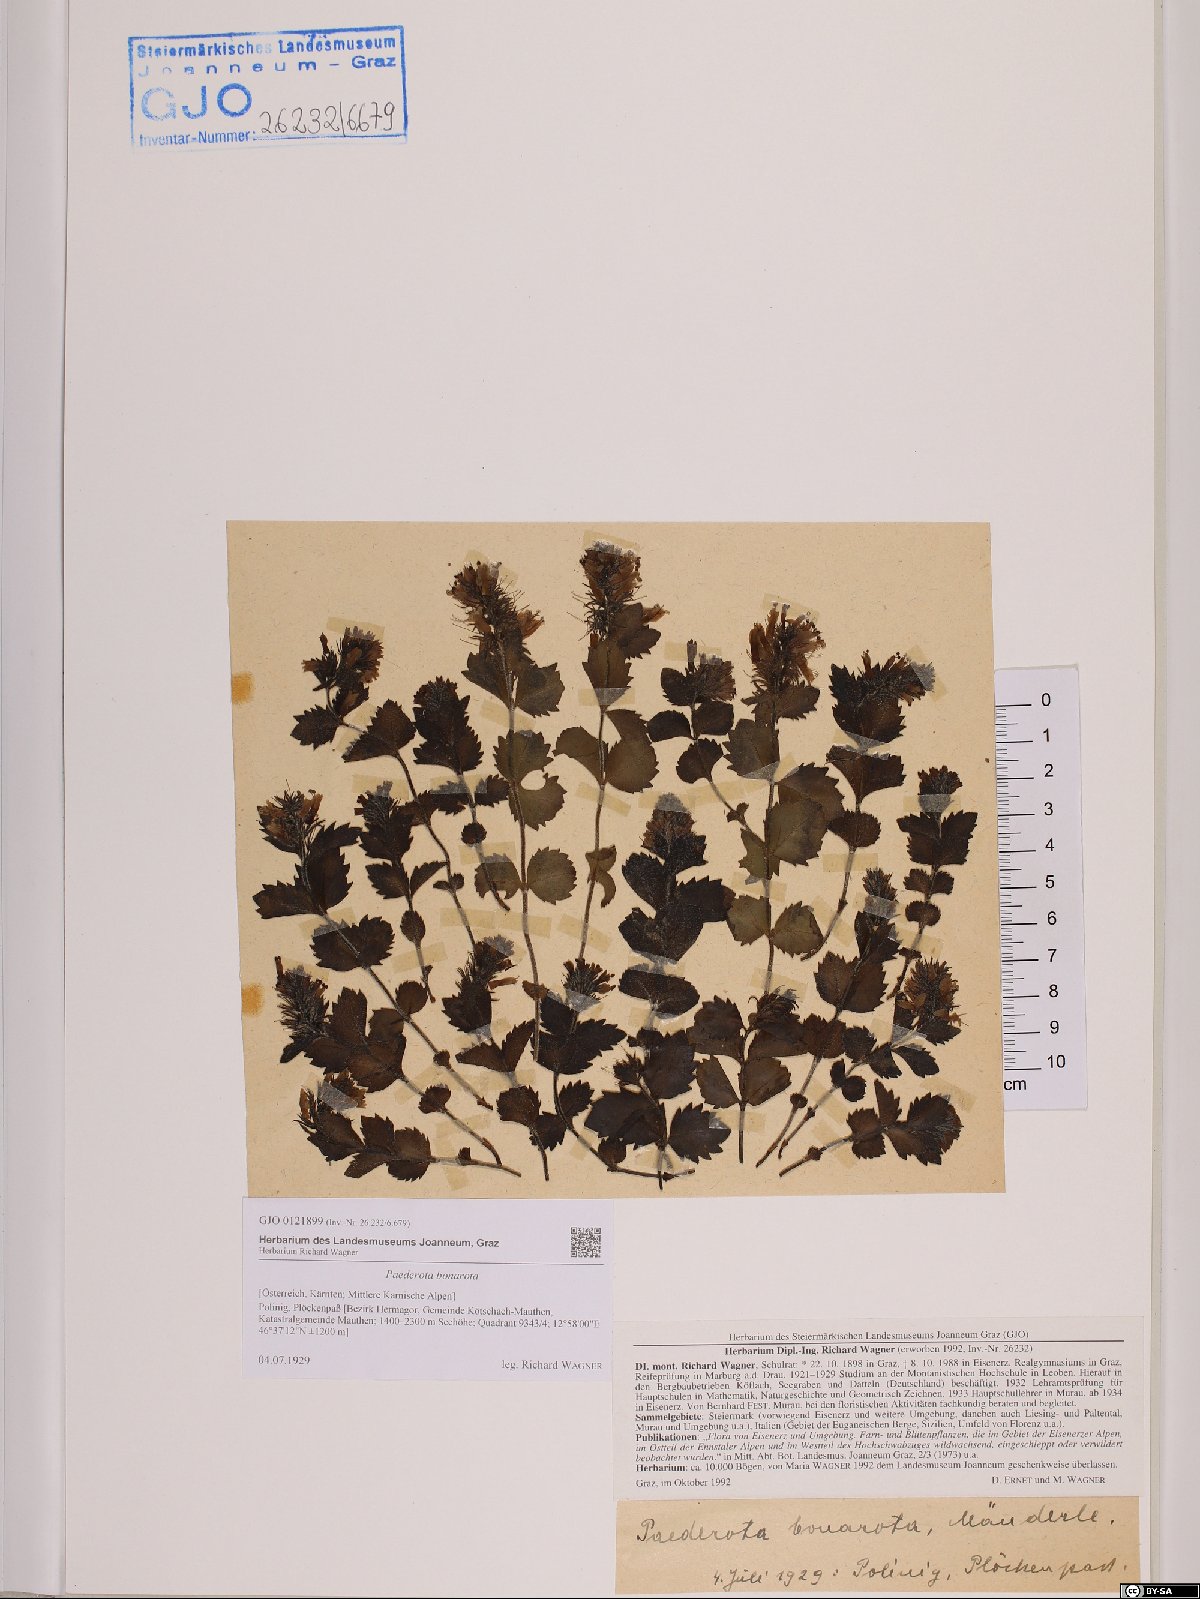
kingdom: Plantae
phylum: Tracheophyta
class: Magnoliopsida
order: Lamiales
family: Plantaginaceae
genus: Paederota
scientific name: Paederota bonarota
